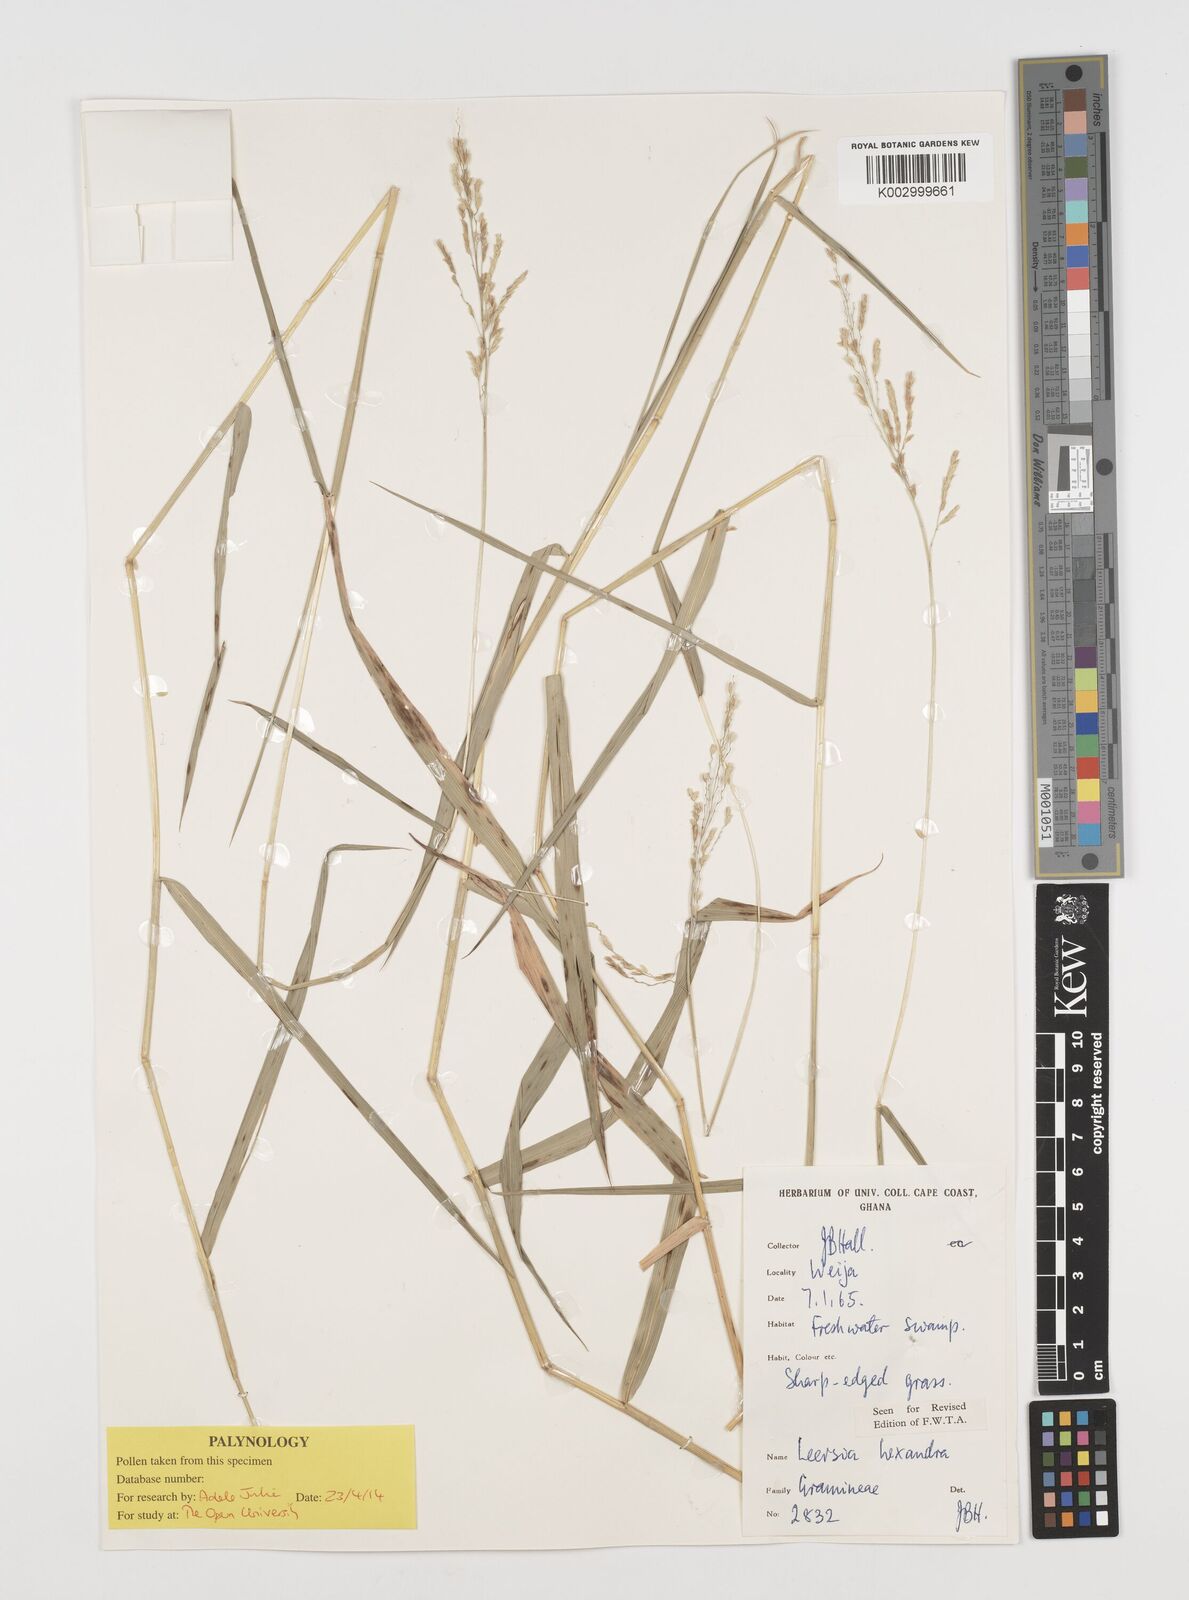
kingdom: Plantae
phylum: Tracheophyta
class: Liliopsida
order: Poales
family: Poaceae
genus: Leersia
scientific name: Leersia hexandra
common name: Southern cut grass
